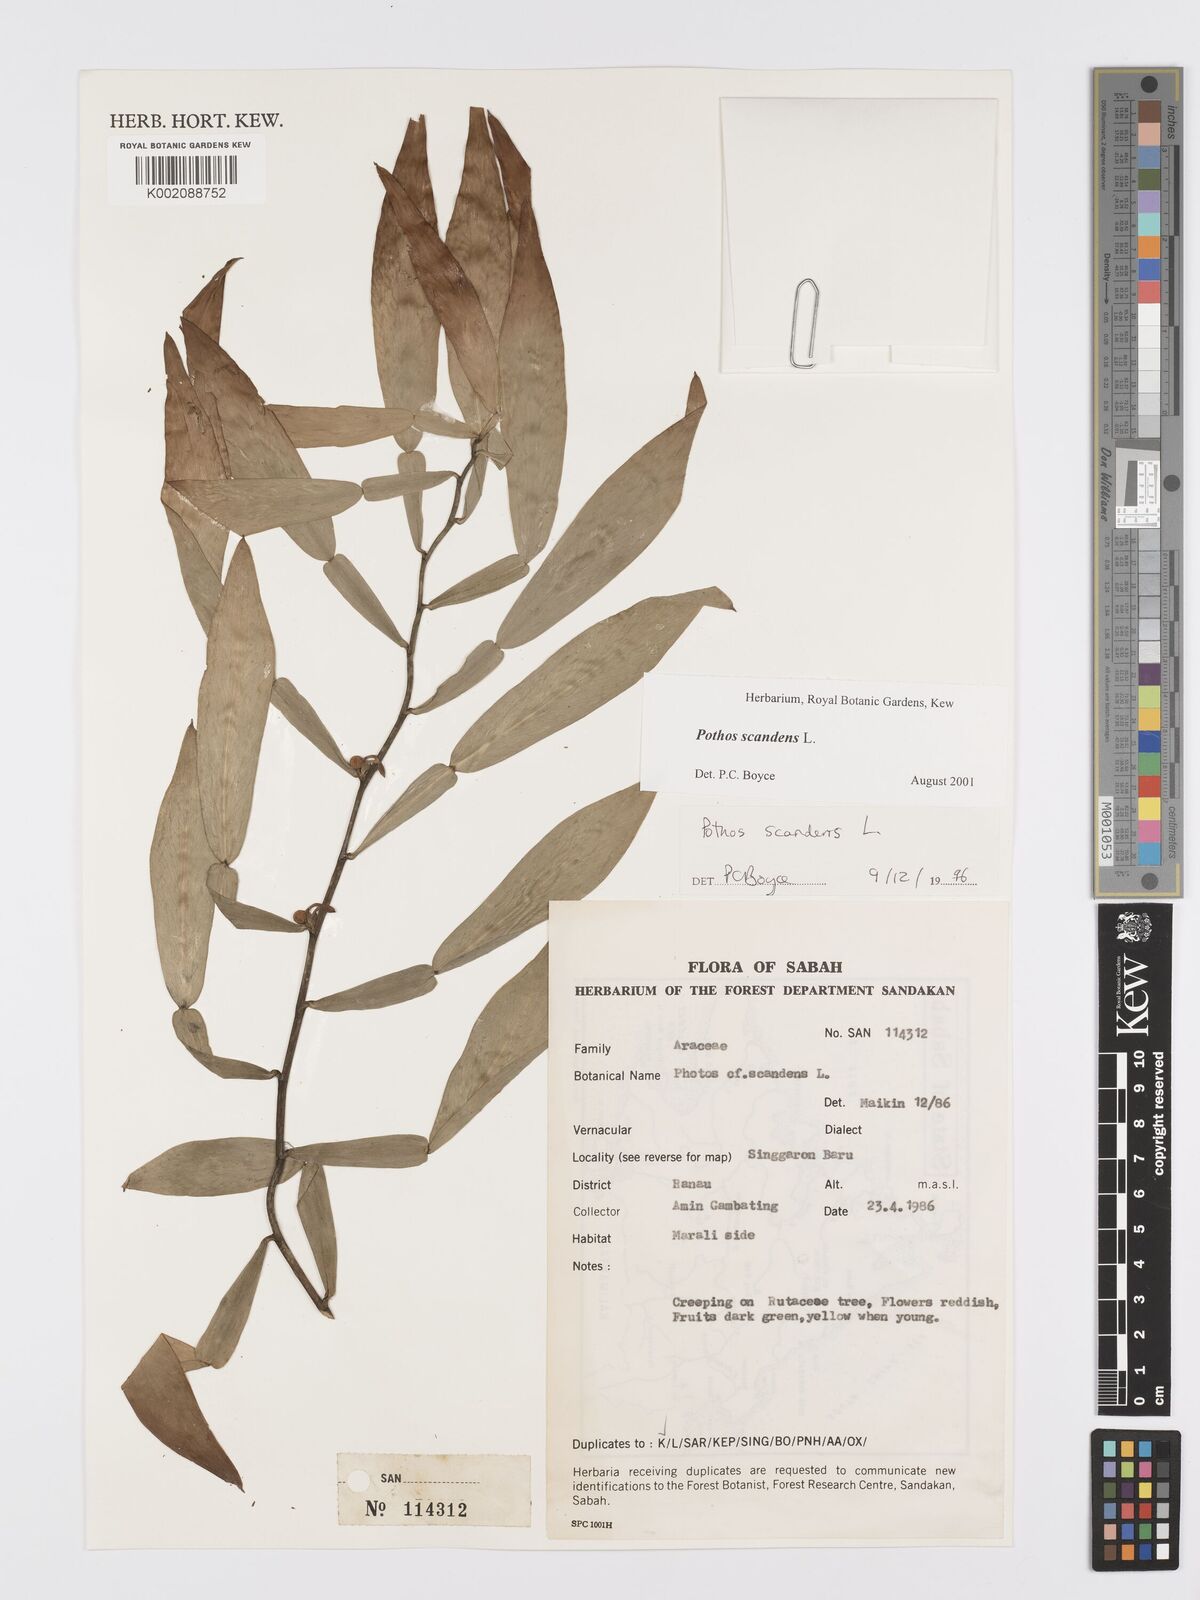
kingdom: Plantae
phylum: Tracheophyta
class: Liliopsida
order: Alismatales
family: Araceae
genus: Pothos
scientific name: Pothos scandens
